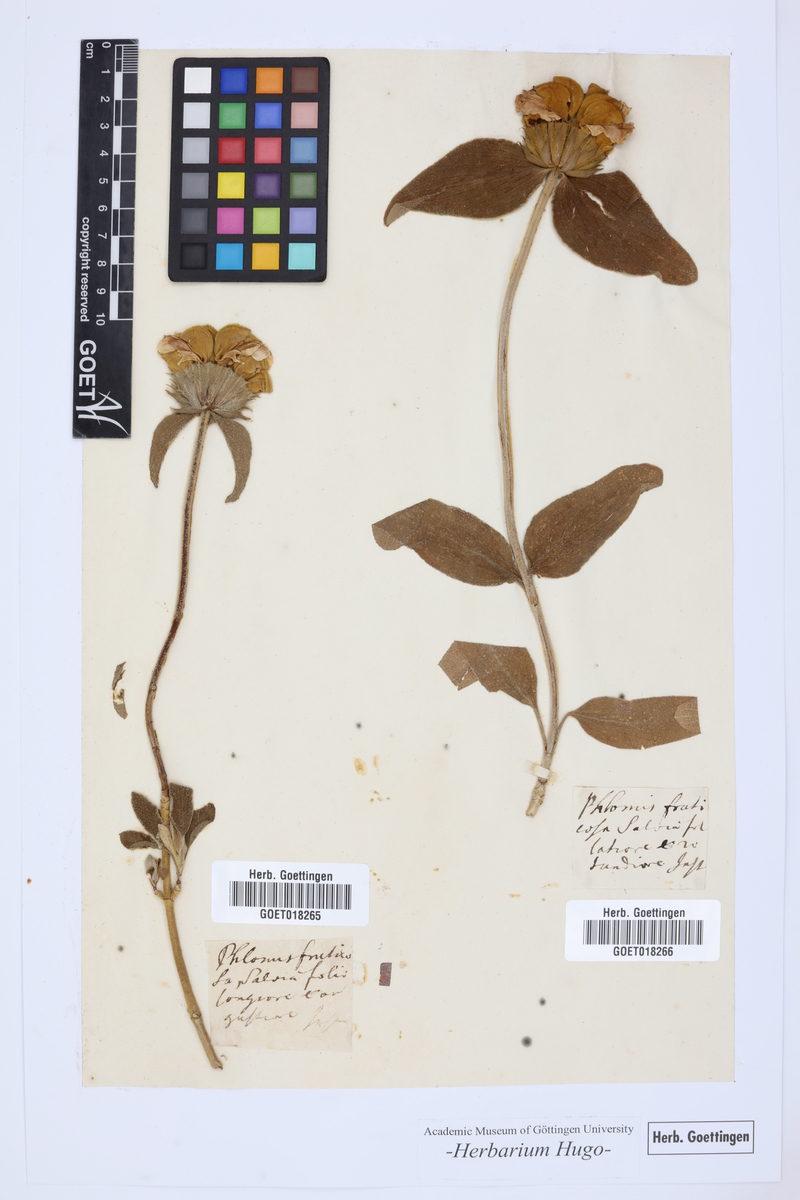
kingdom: Plantae
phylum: Tracheophyta
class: Magnoliopsida
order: Lamiales
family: Lamiaceae
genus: Phlomis
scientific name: Phlomis
